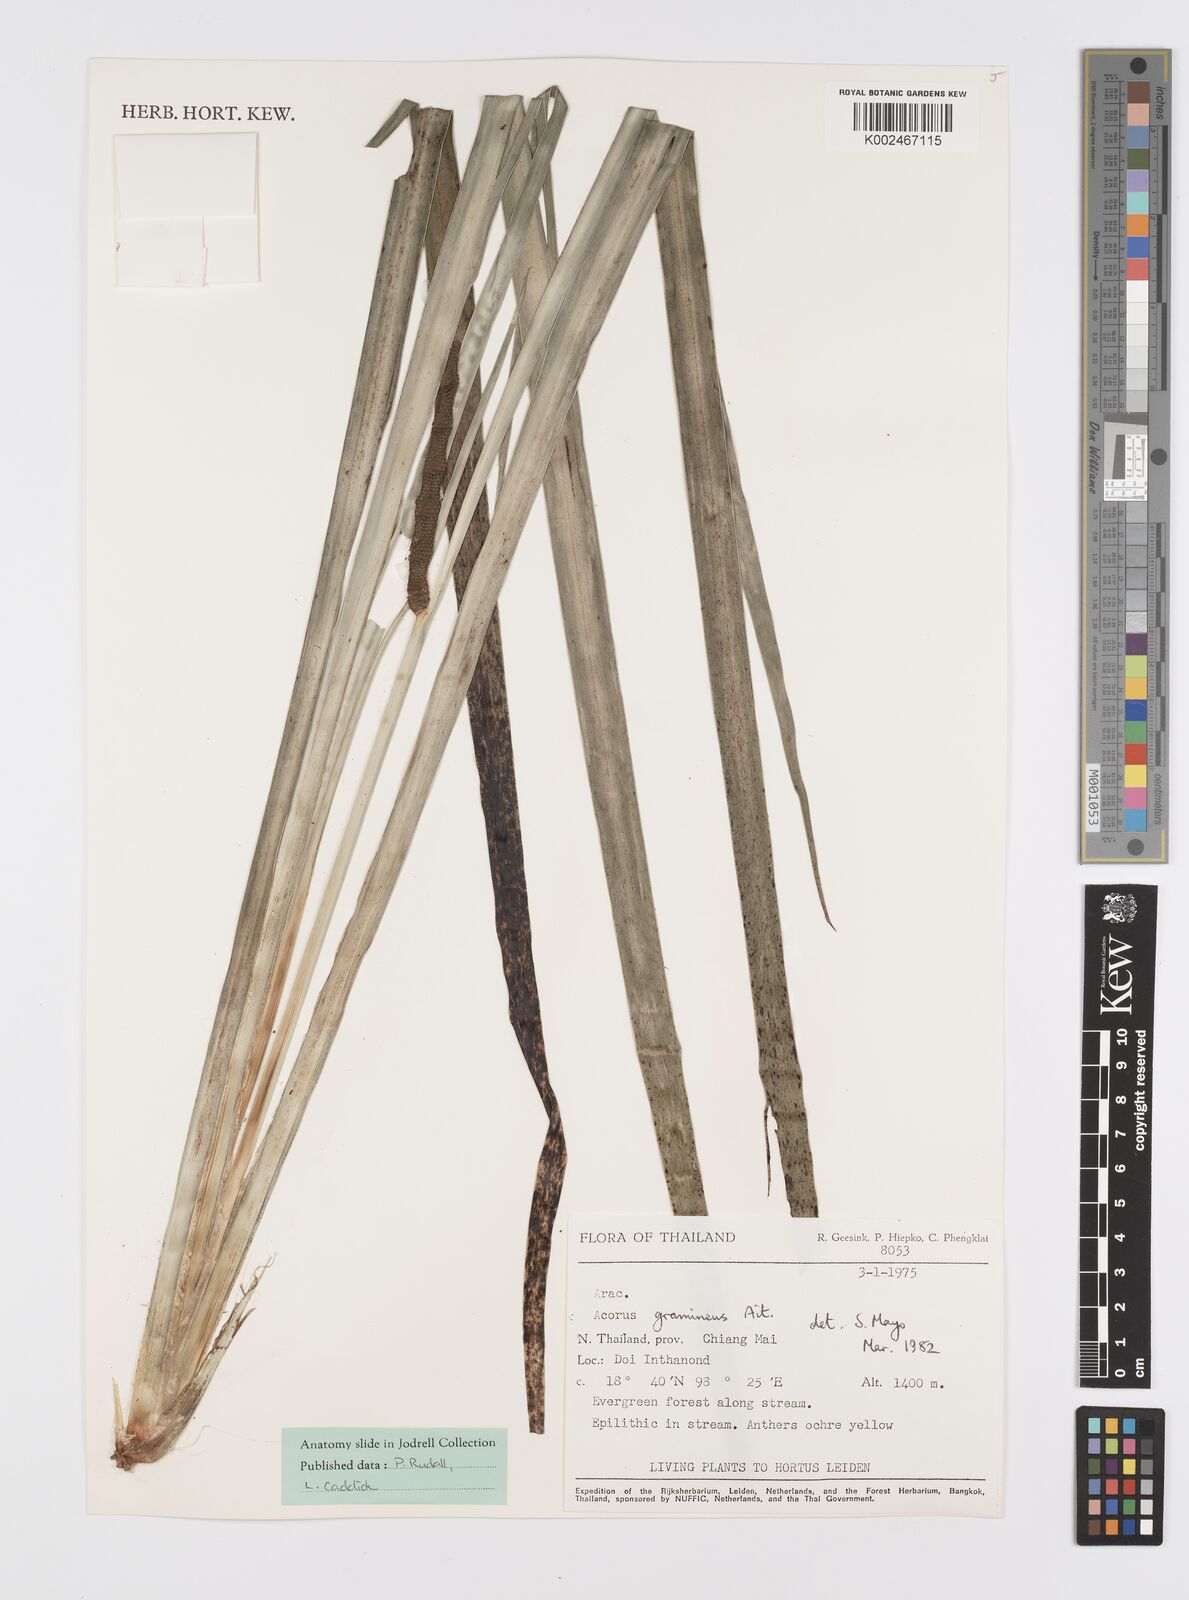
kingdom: Plantae
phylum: Tracheophyta
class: Liliopsida
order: Acorales
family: Acoraceae
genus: Acorus
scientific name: Acorus gramineus
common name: Slender sweet-flag
